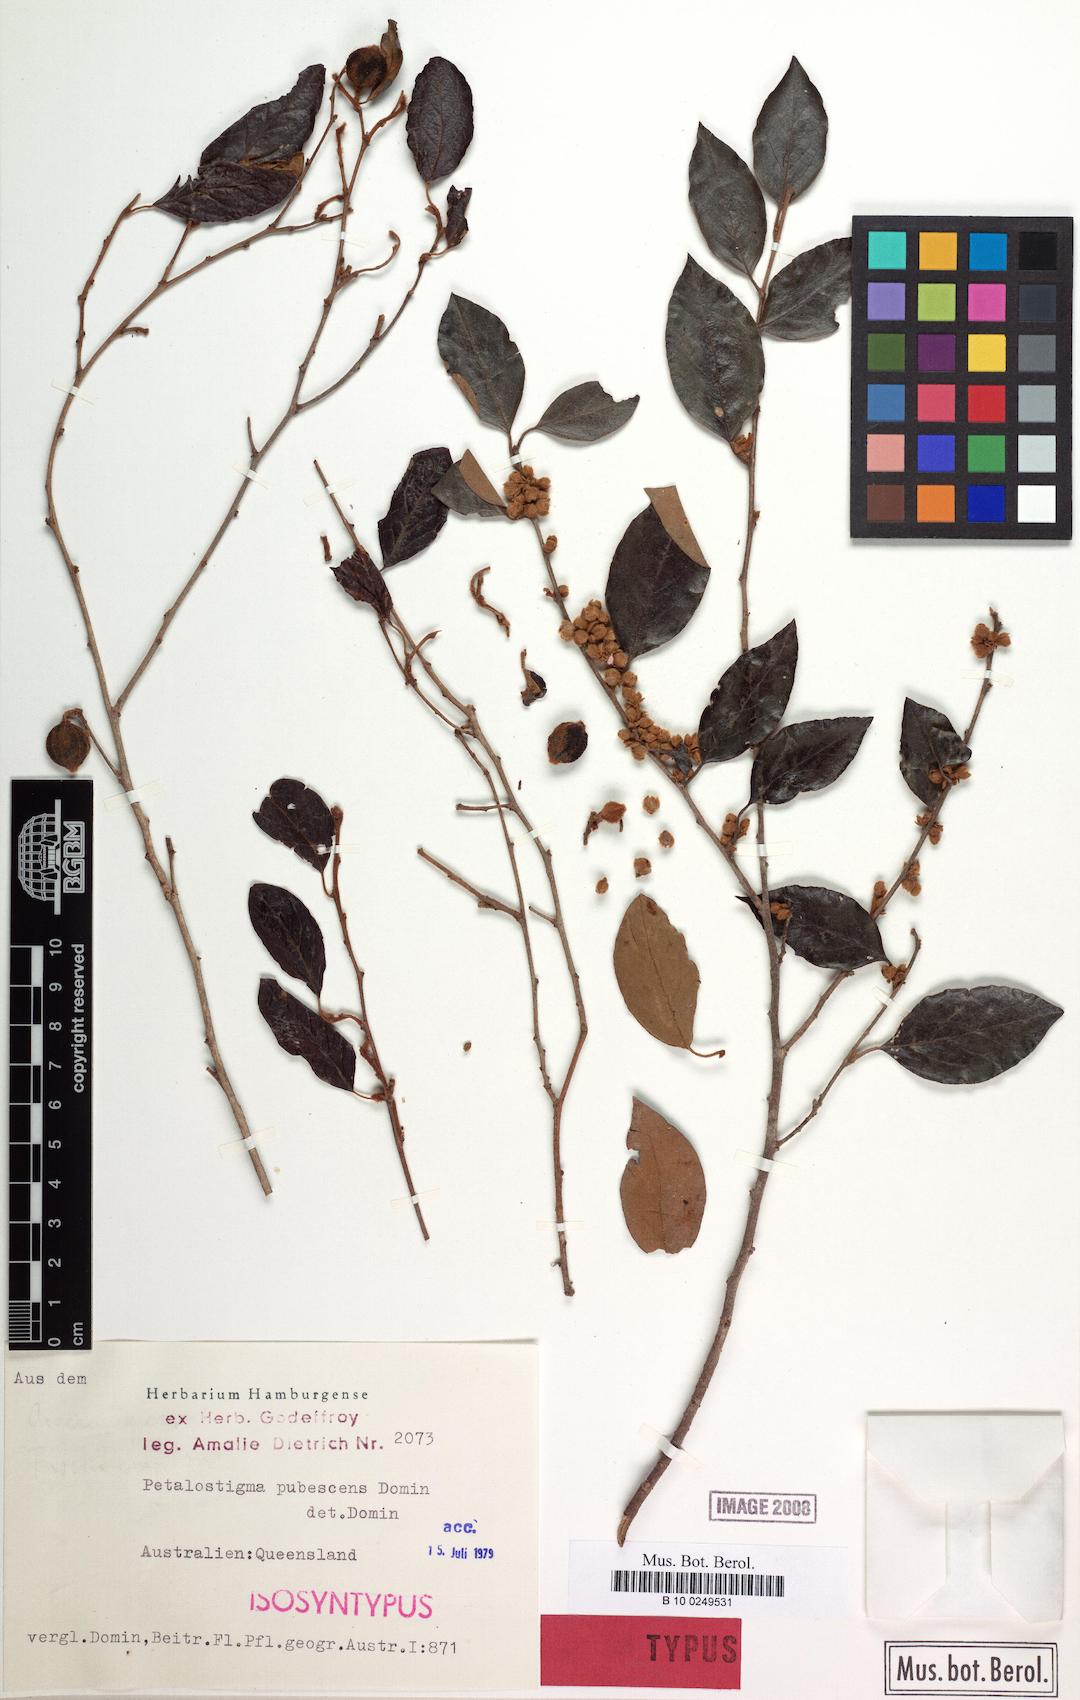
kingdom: Plantae
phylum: Tracheophyta
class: Magnoliopsida
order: Malpighiales
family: Picrodendraceae
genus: Petalostigma
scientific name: Petalostigma pubescens
